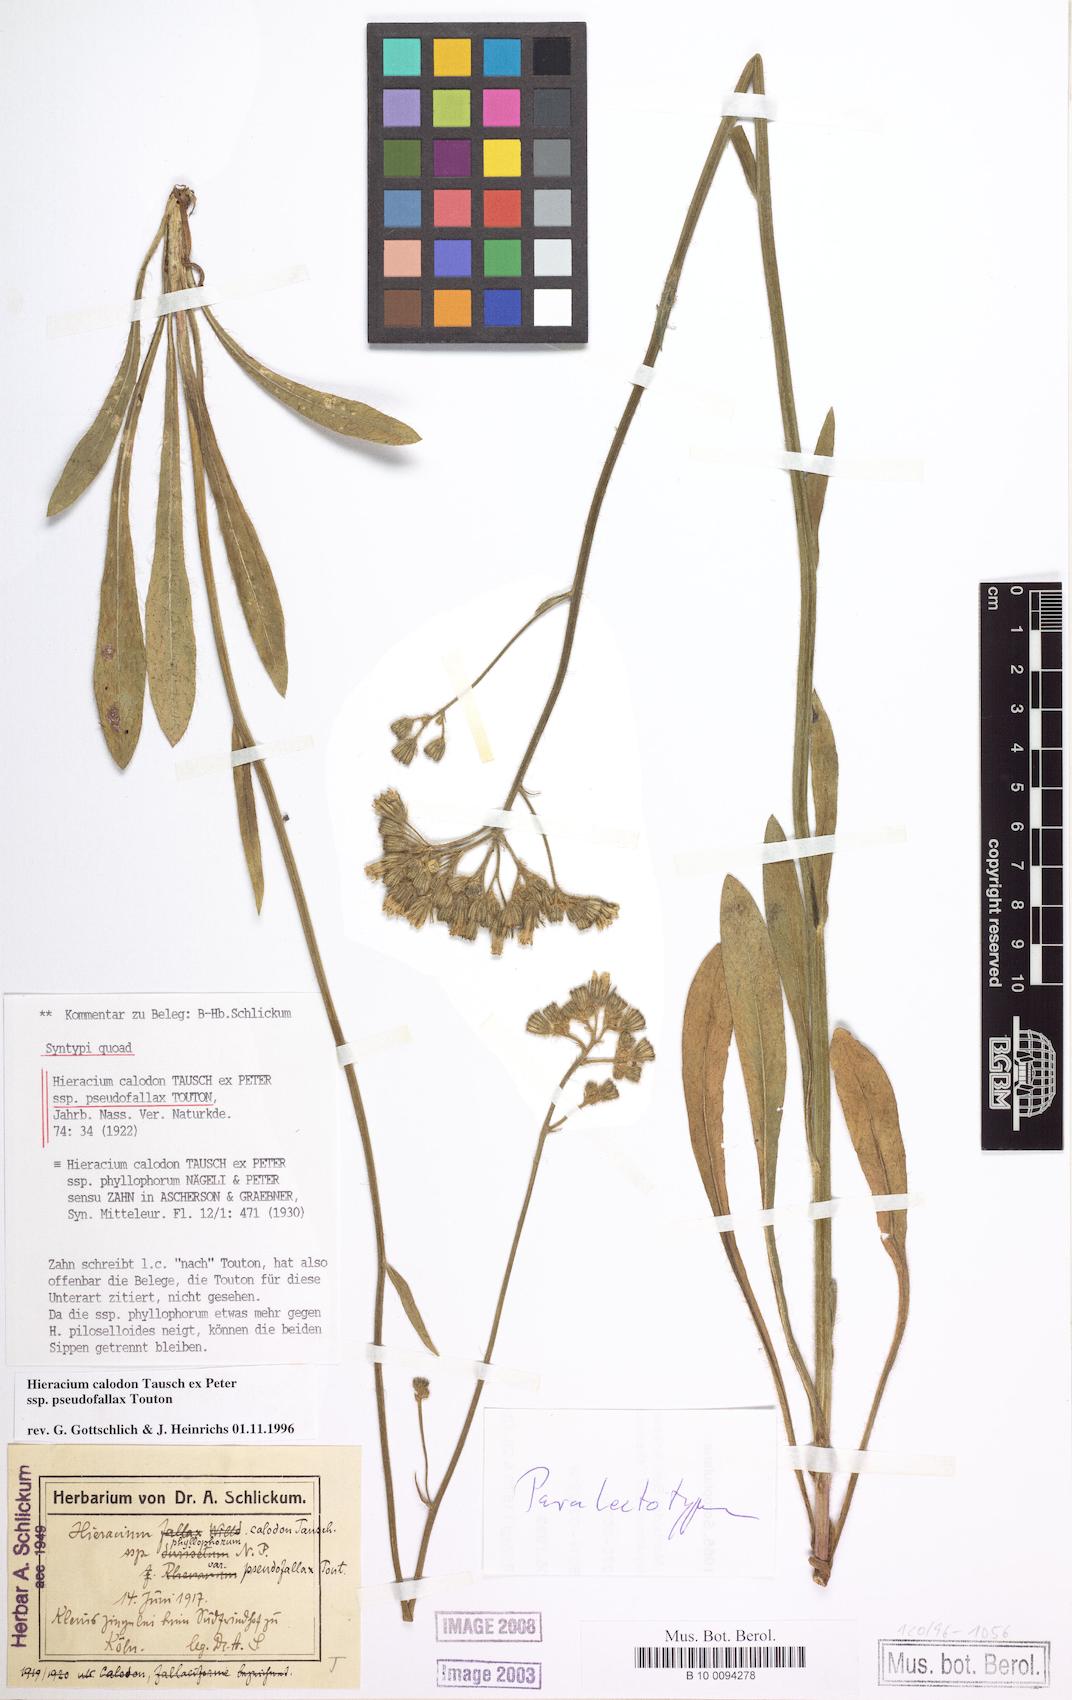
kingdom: Plantae
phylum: Tracheophyta
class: Magnoliopsida
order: Asterales
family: Asteraceae
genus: Pilosella
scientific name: Pilosella calodon
